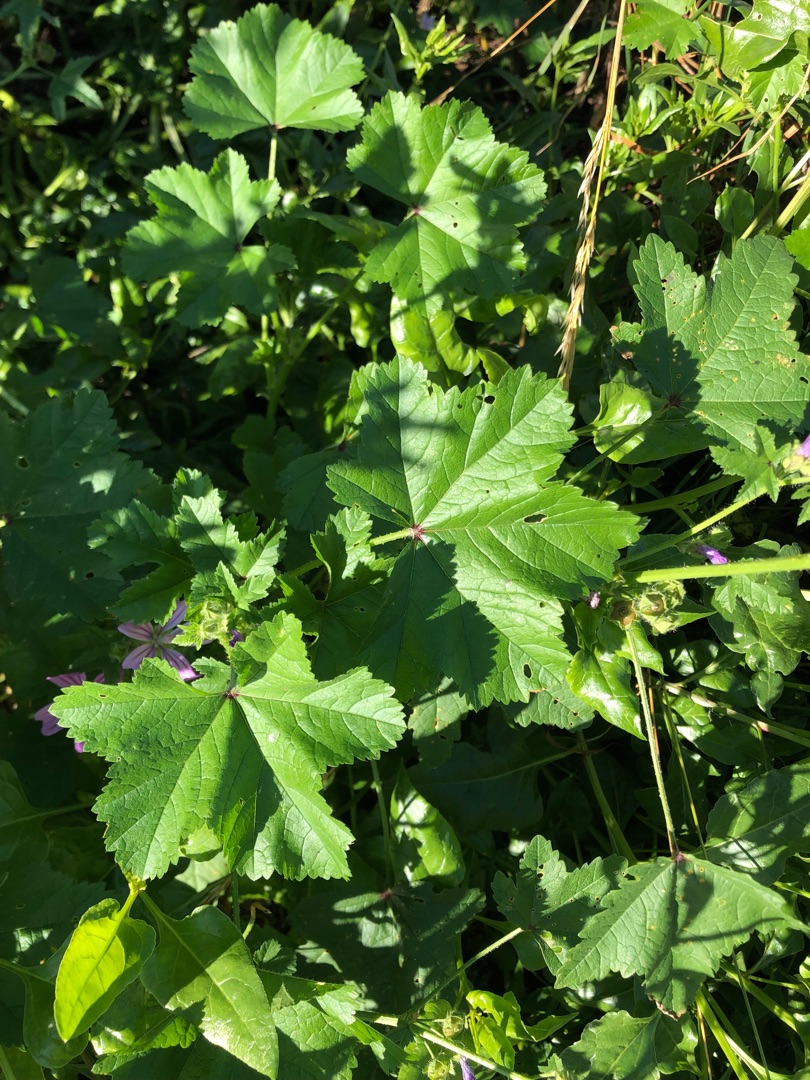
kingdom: Plantae
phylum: Tracheophyta
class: Magnoliopsida
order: Malvales
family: Malvaceae
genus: Malva
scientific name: Malva sylvestris
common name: Almindelig katost
